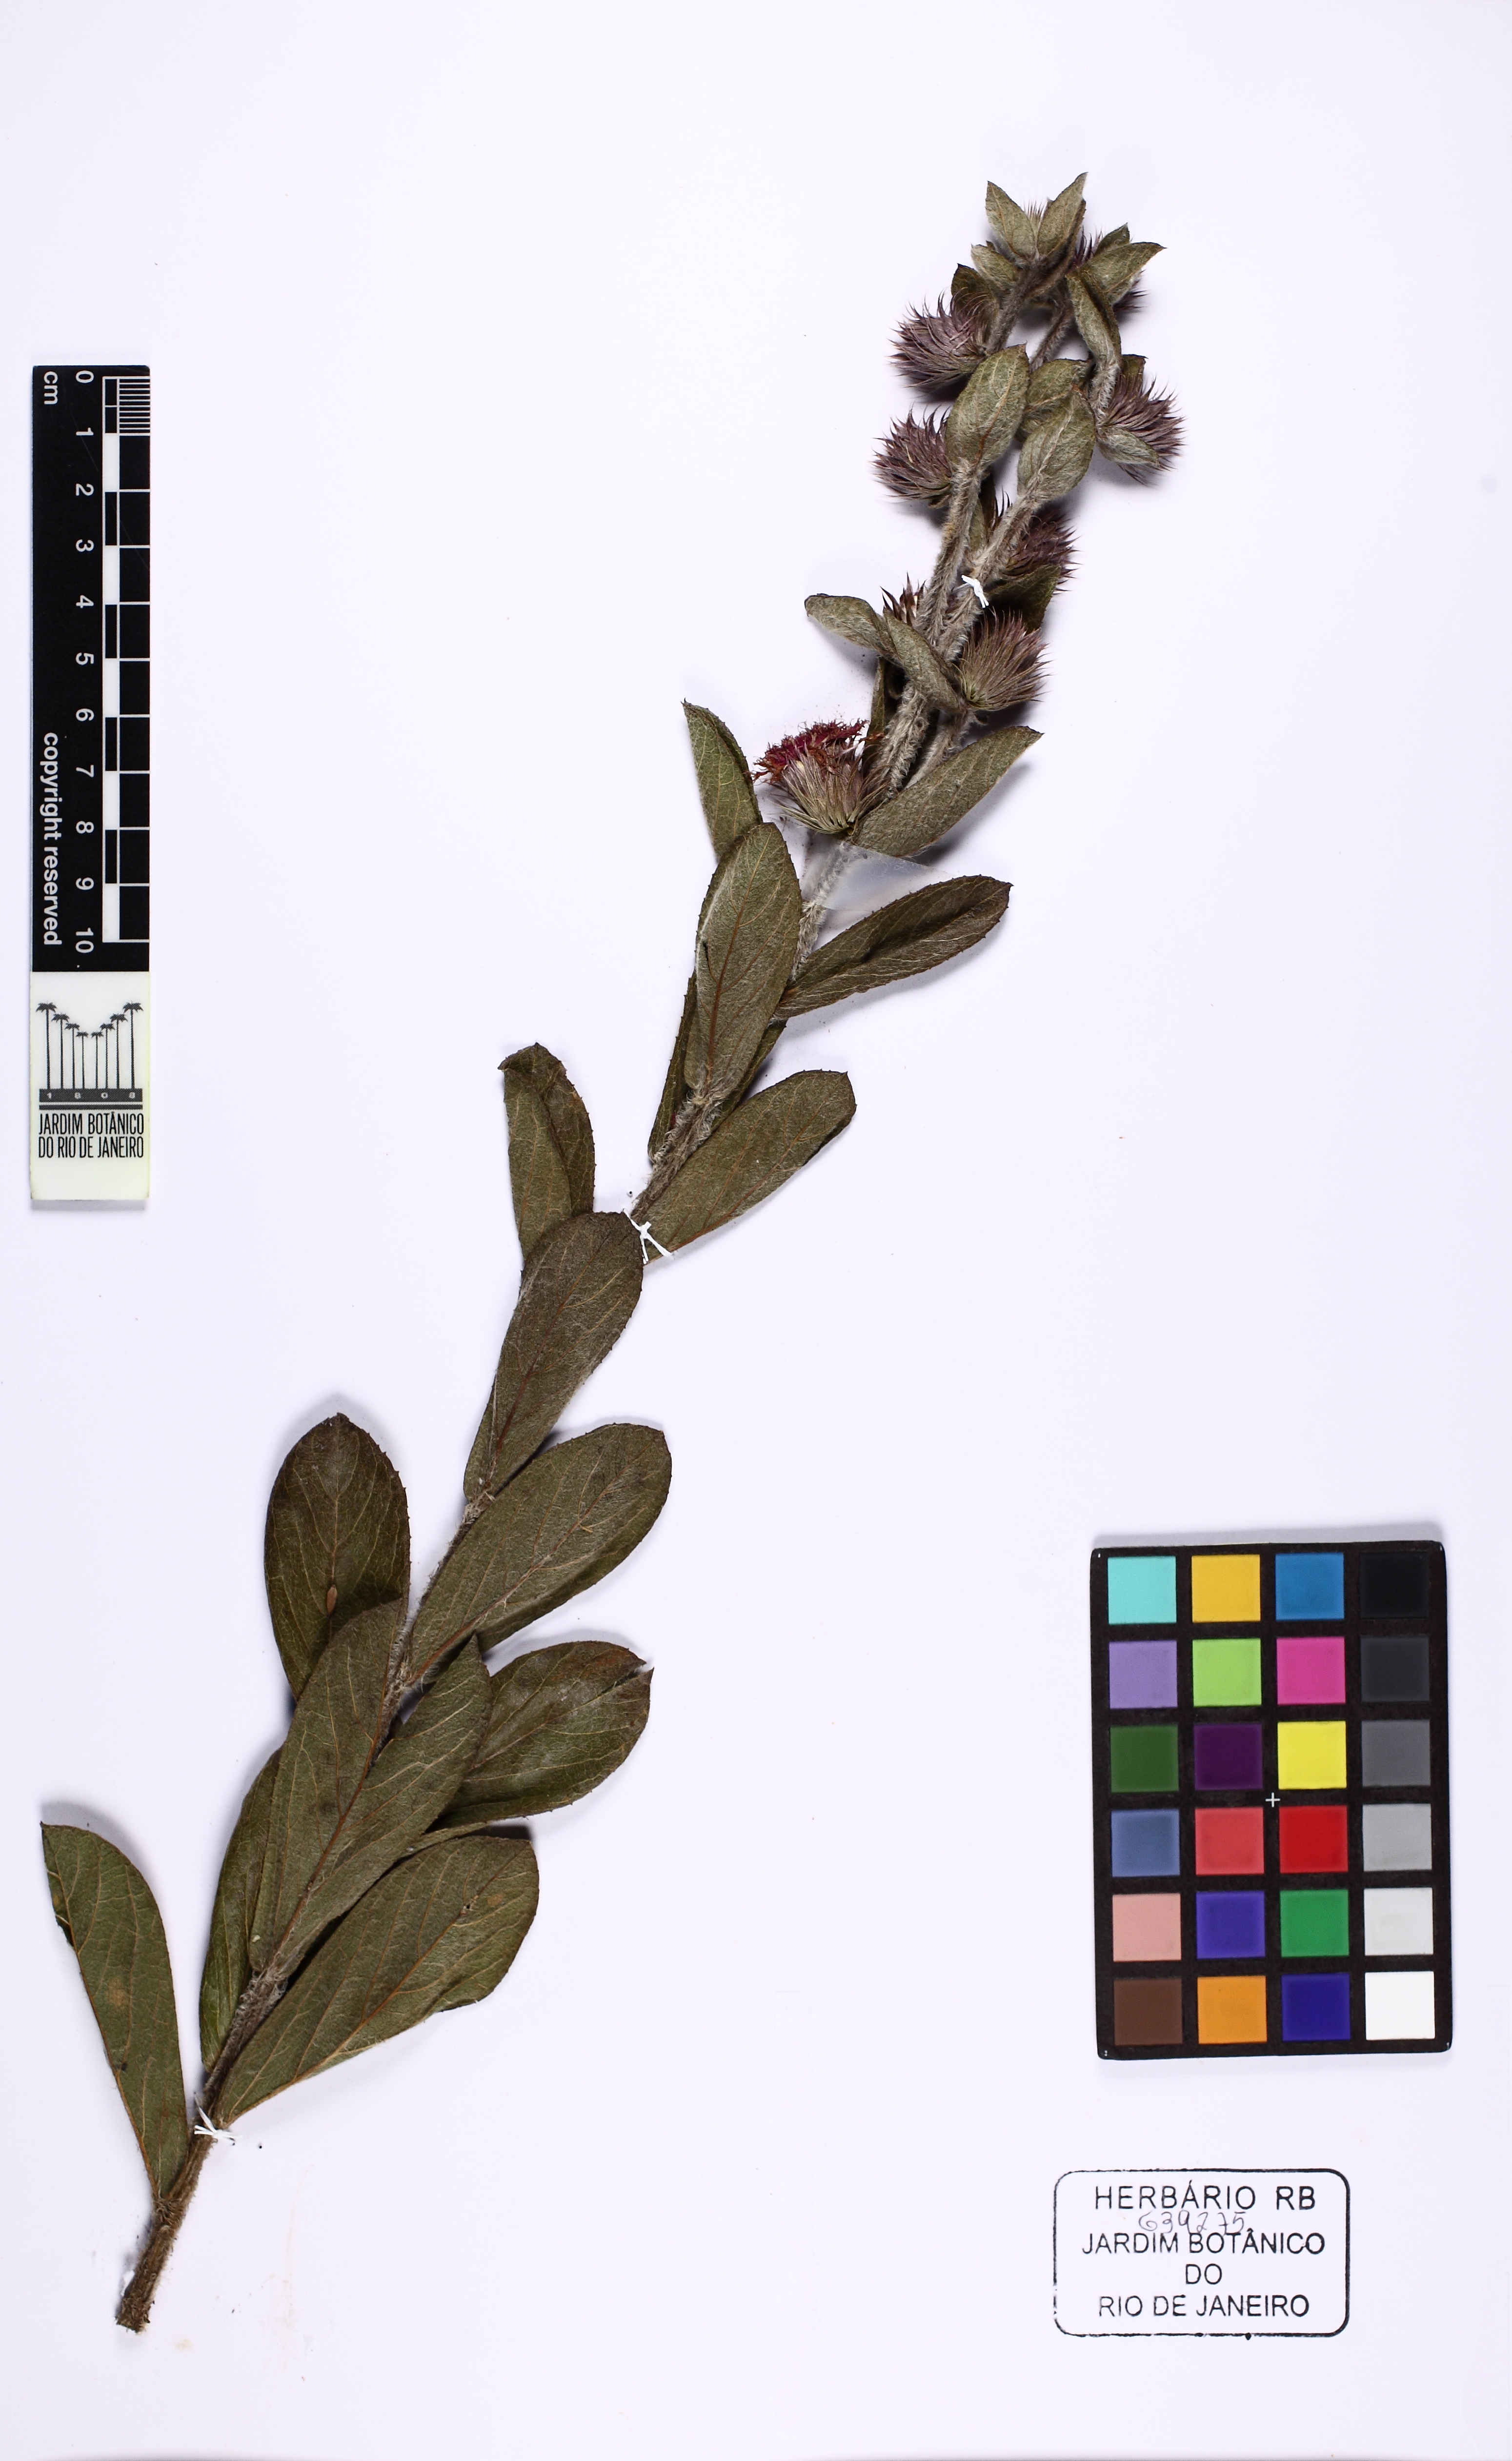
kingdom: Plantae
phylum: Tracheophyta
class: Magnoliopsida
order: Asterales
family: Asteraceae
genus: Lessingianthus
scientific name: Lessingianthus
